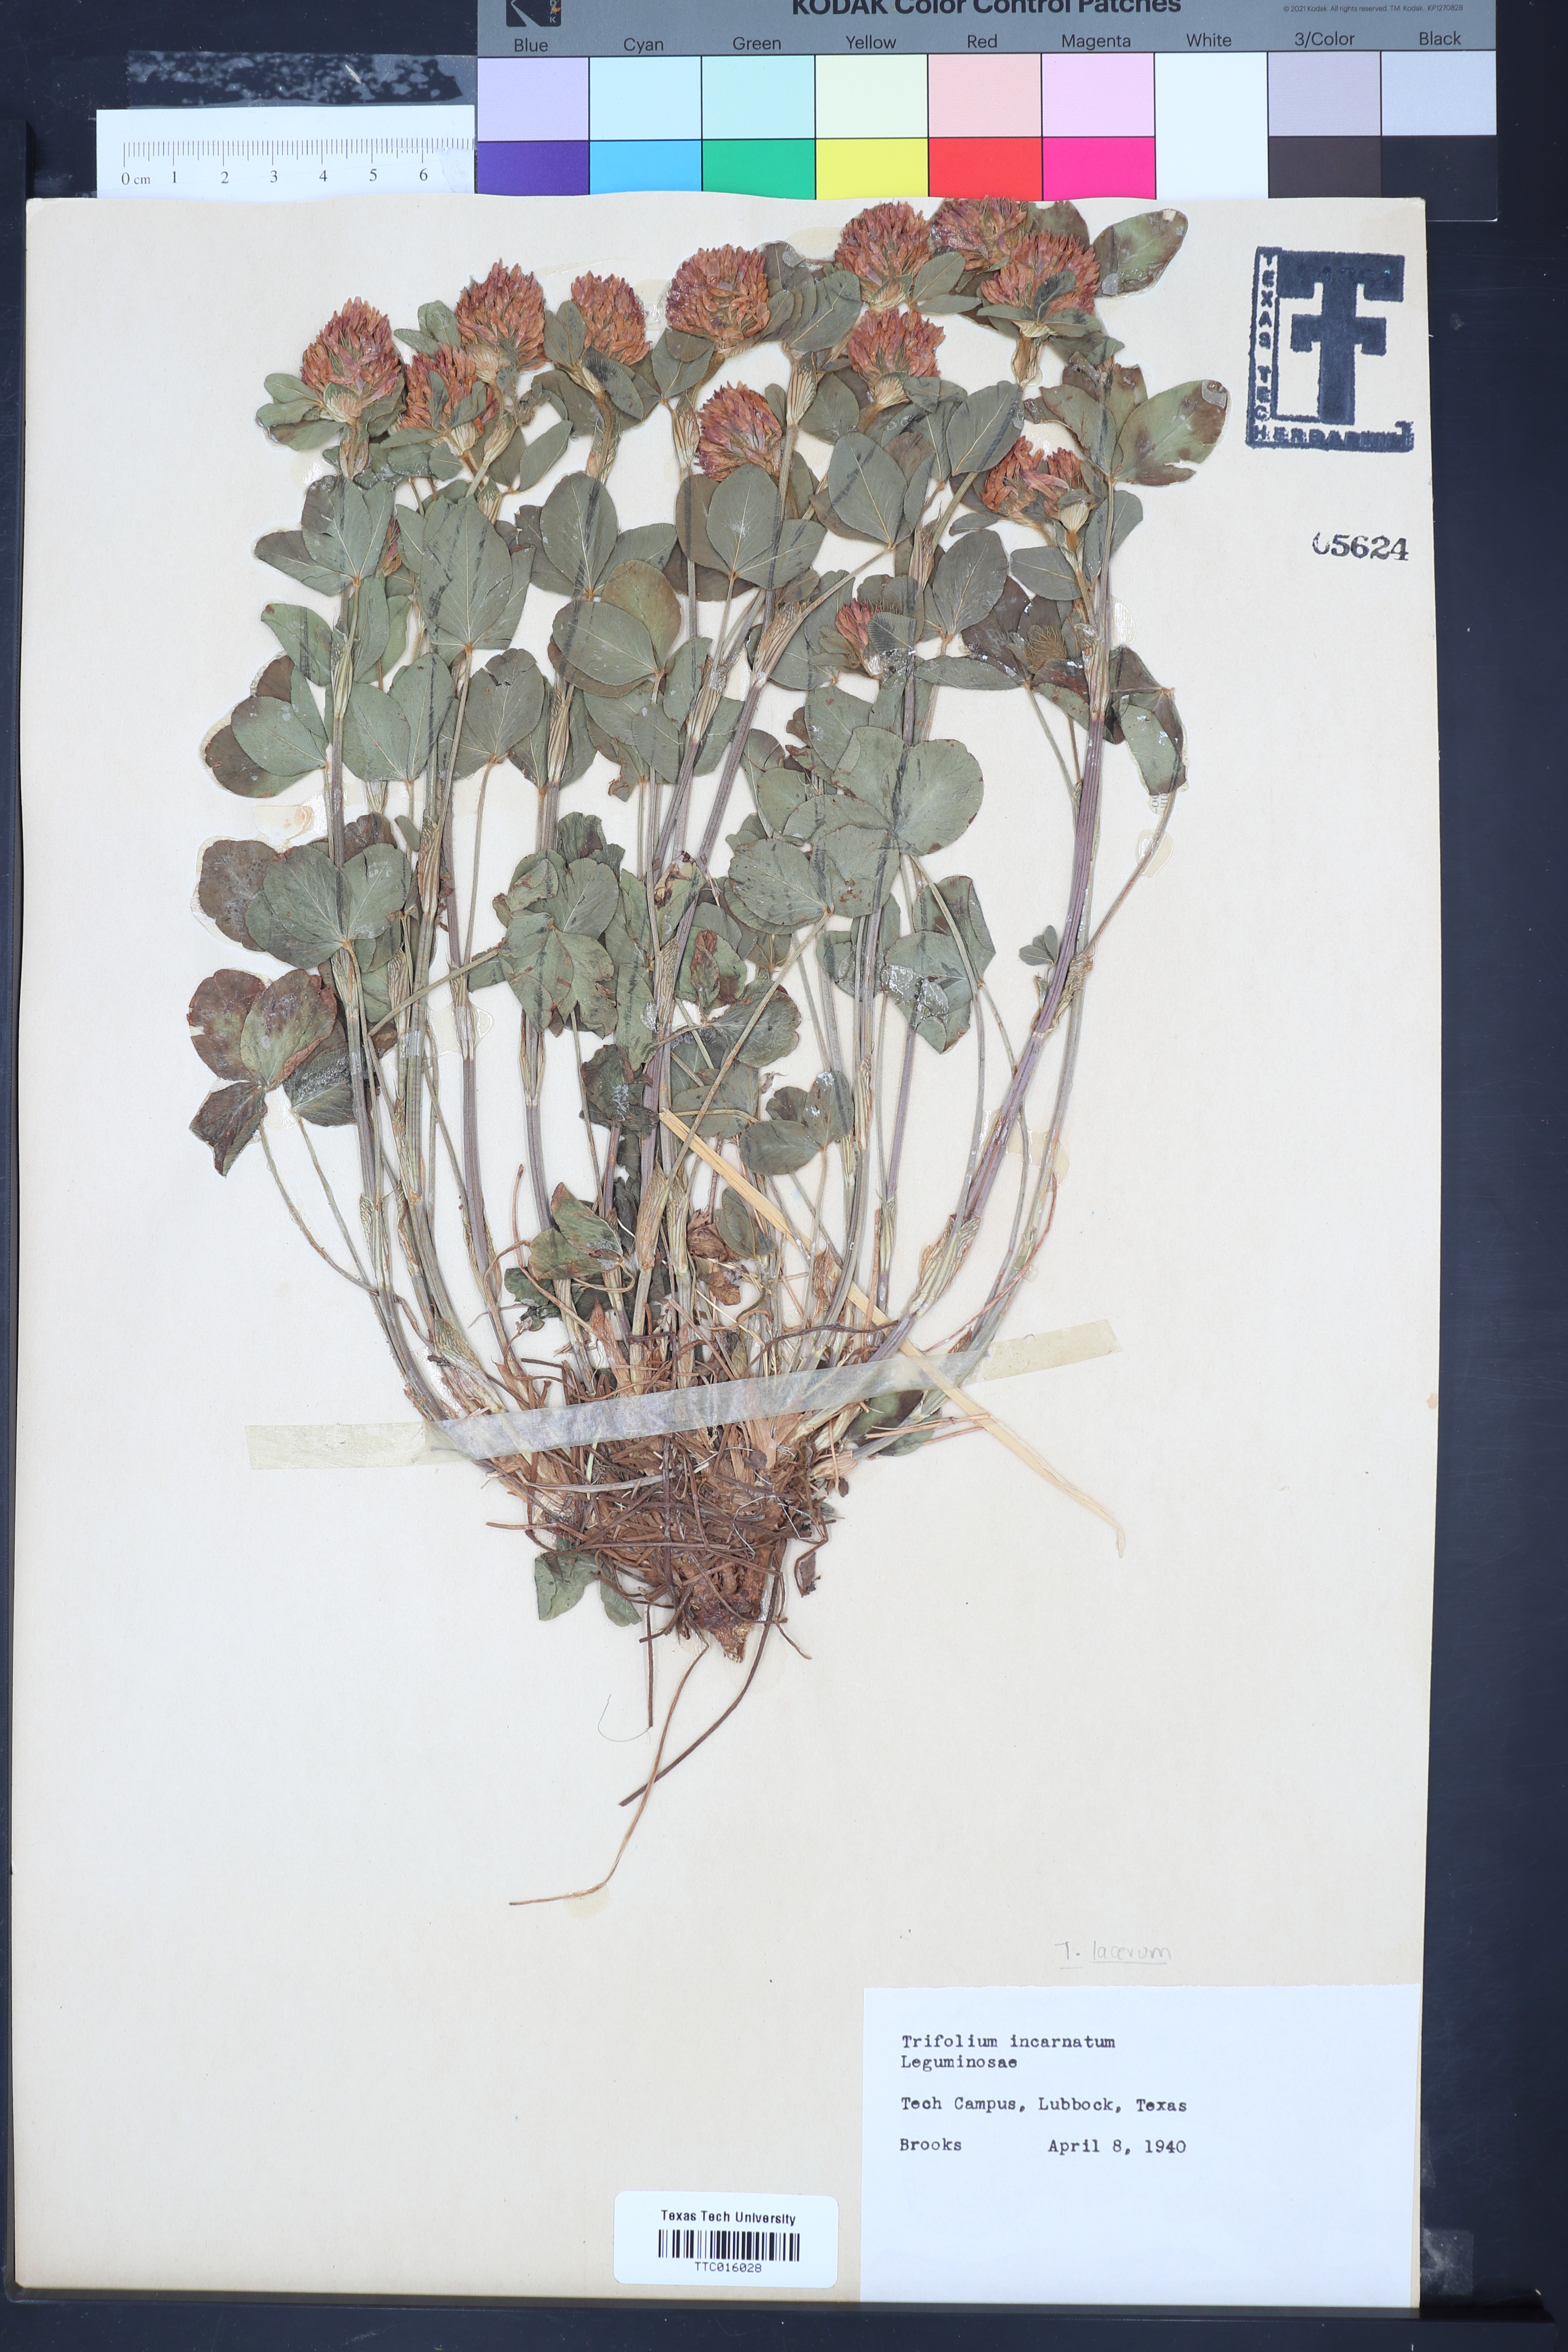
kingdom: Plantae
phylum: Tracheophyta
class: Magnoliopsida
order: Fabales
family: Fabaceae
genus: Trifolium
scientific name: Trifolium incarnatum
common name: Crimson clover
